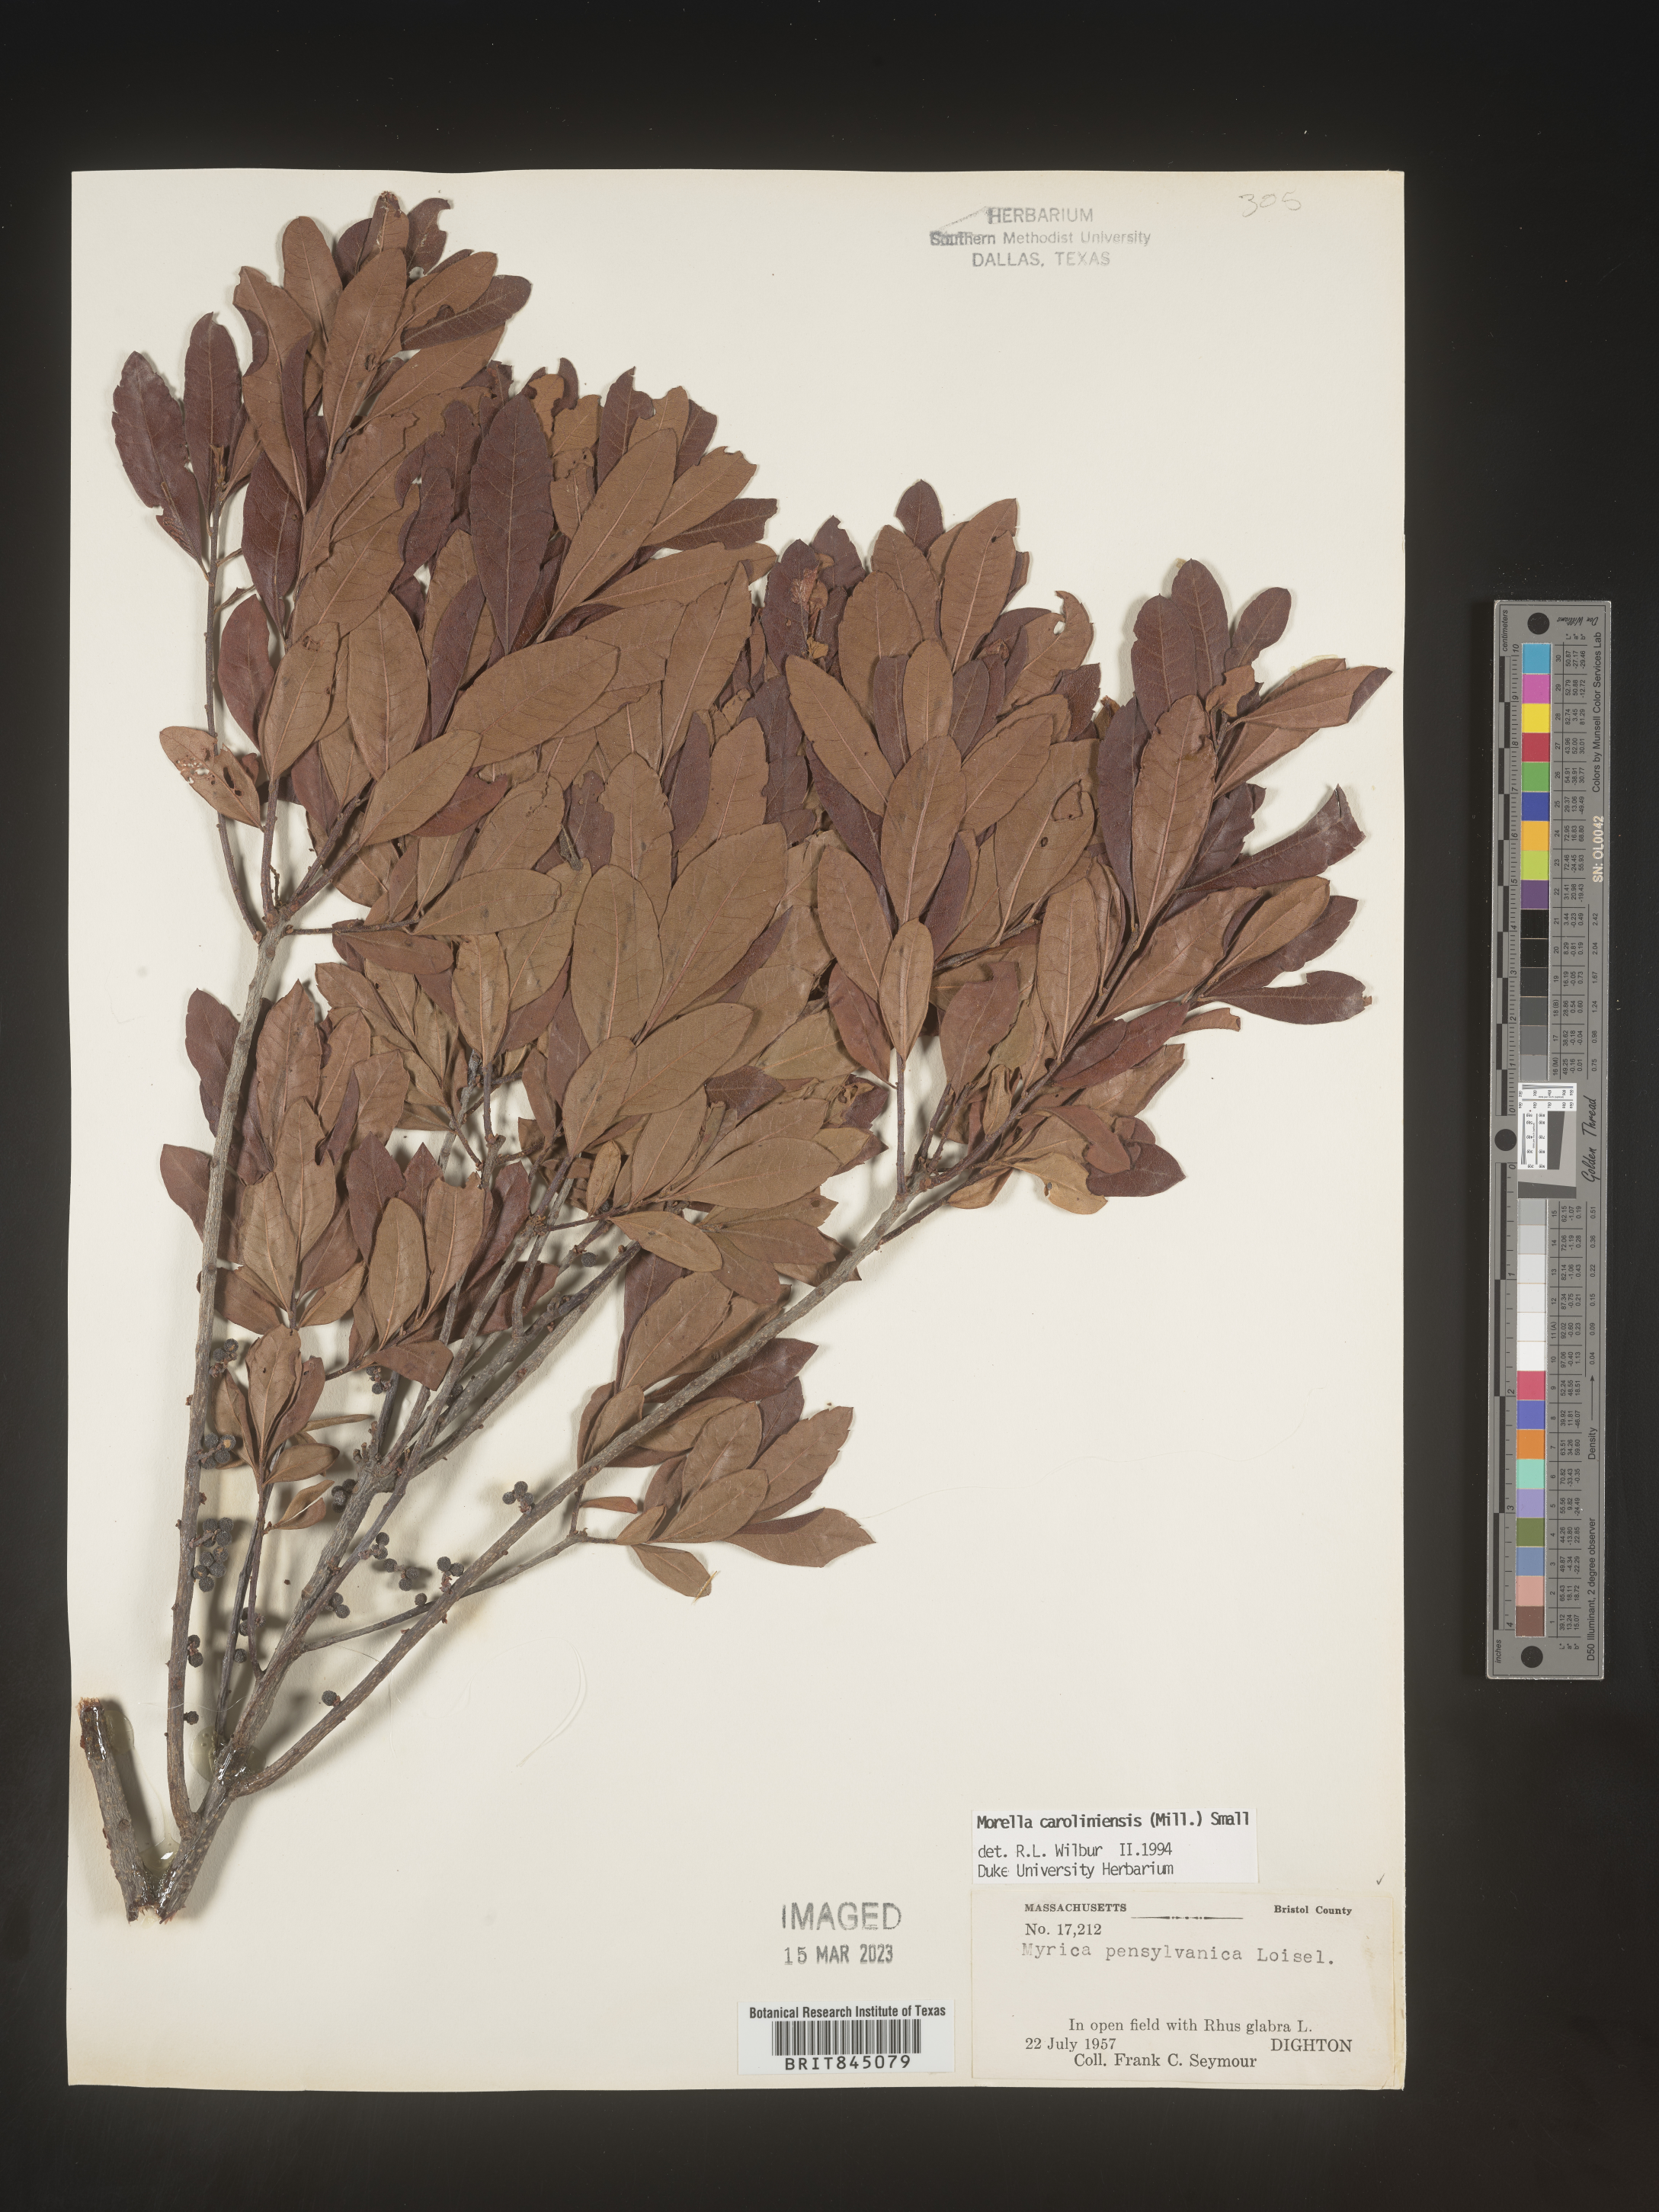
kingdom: Plantae
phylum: Tracheophyta
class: Magnoliopsida
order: Fagales
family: Myricaceae
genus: Morella
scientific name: Morella caroliniensis
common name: Evergreen bayberry
